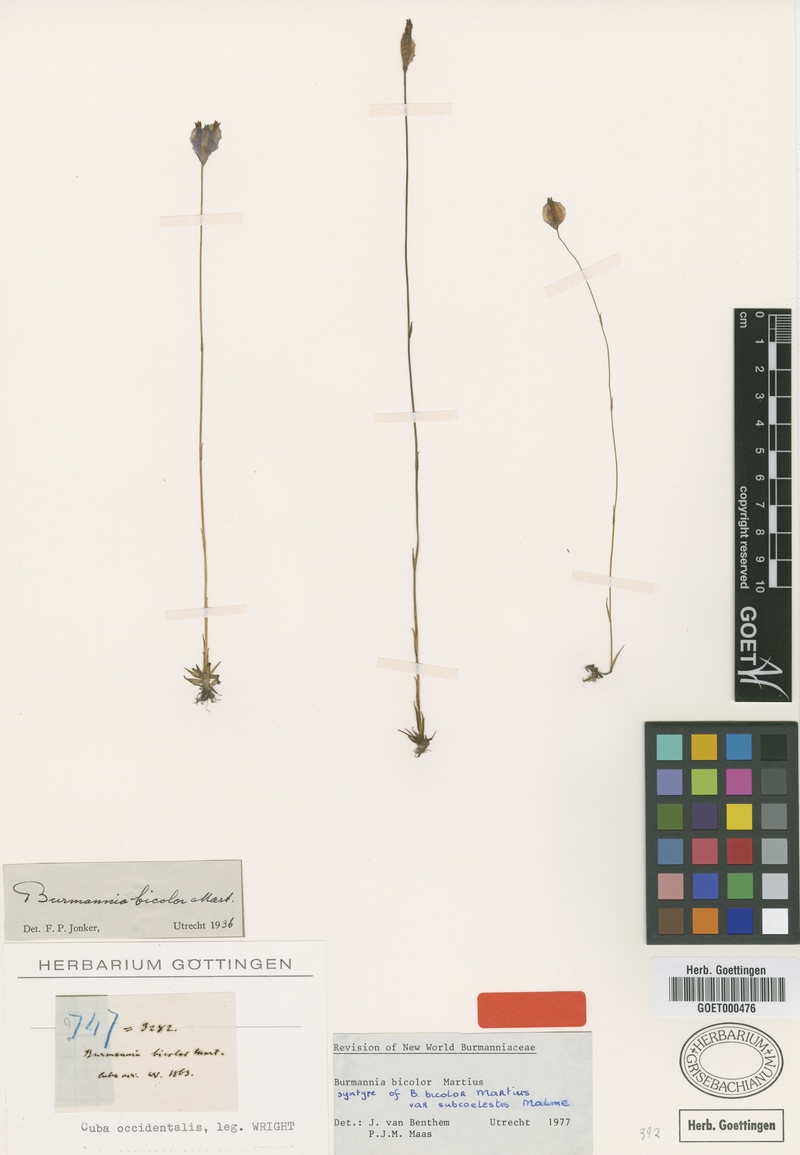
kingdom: Plantae
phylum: Tracheophyta
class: Liliopsida
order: Dioscoreales
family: Burmanniaceae
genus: Burmannia
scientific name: Burmannia bicolor
